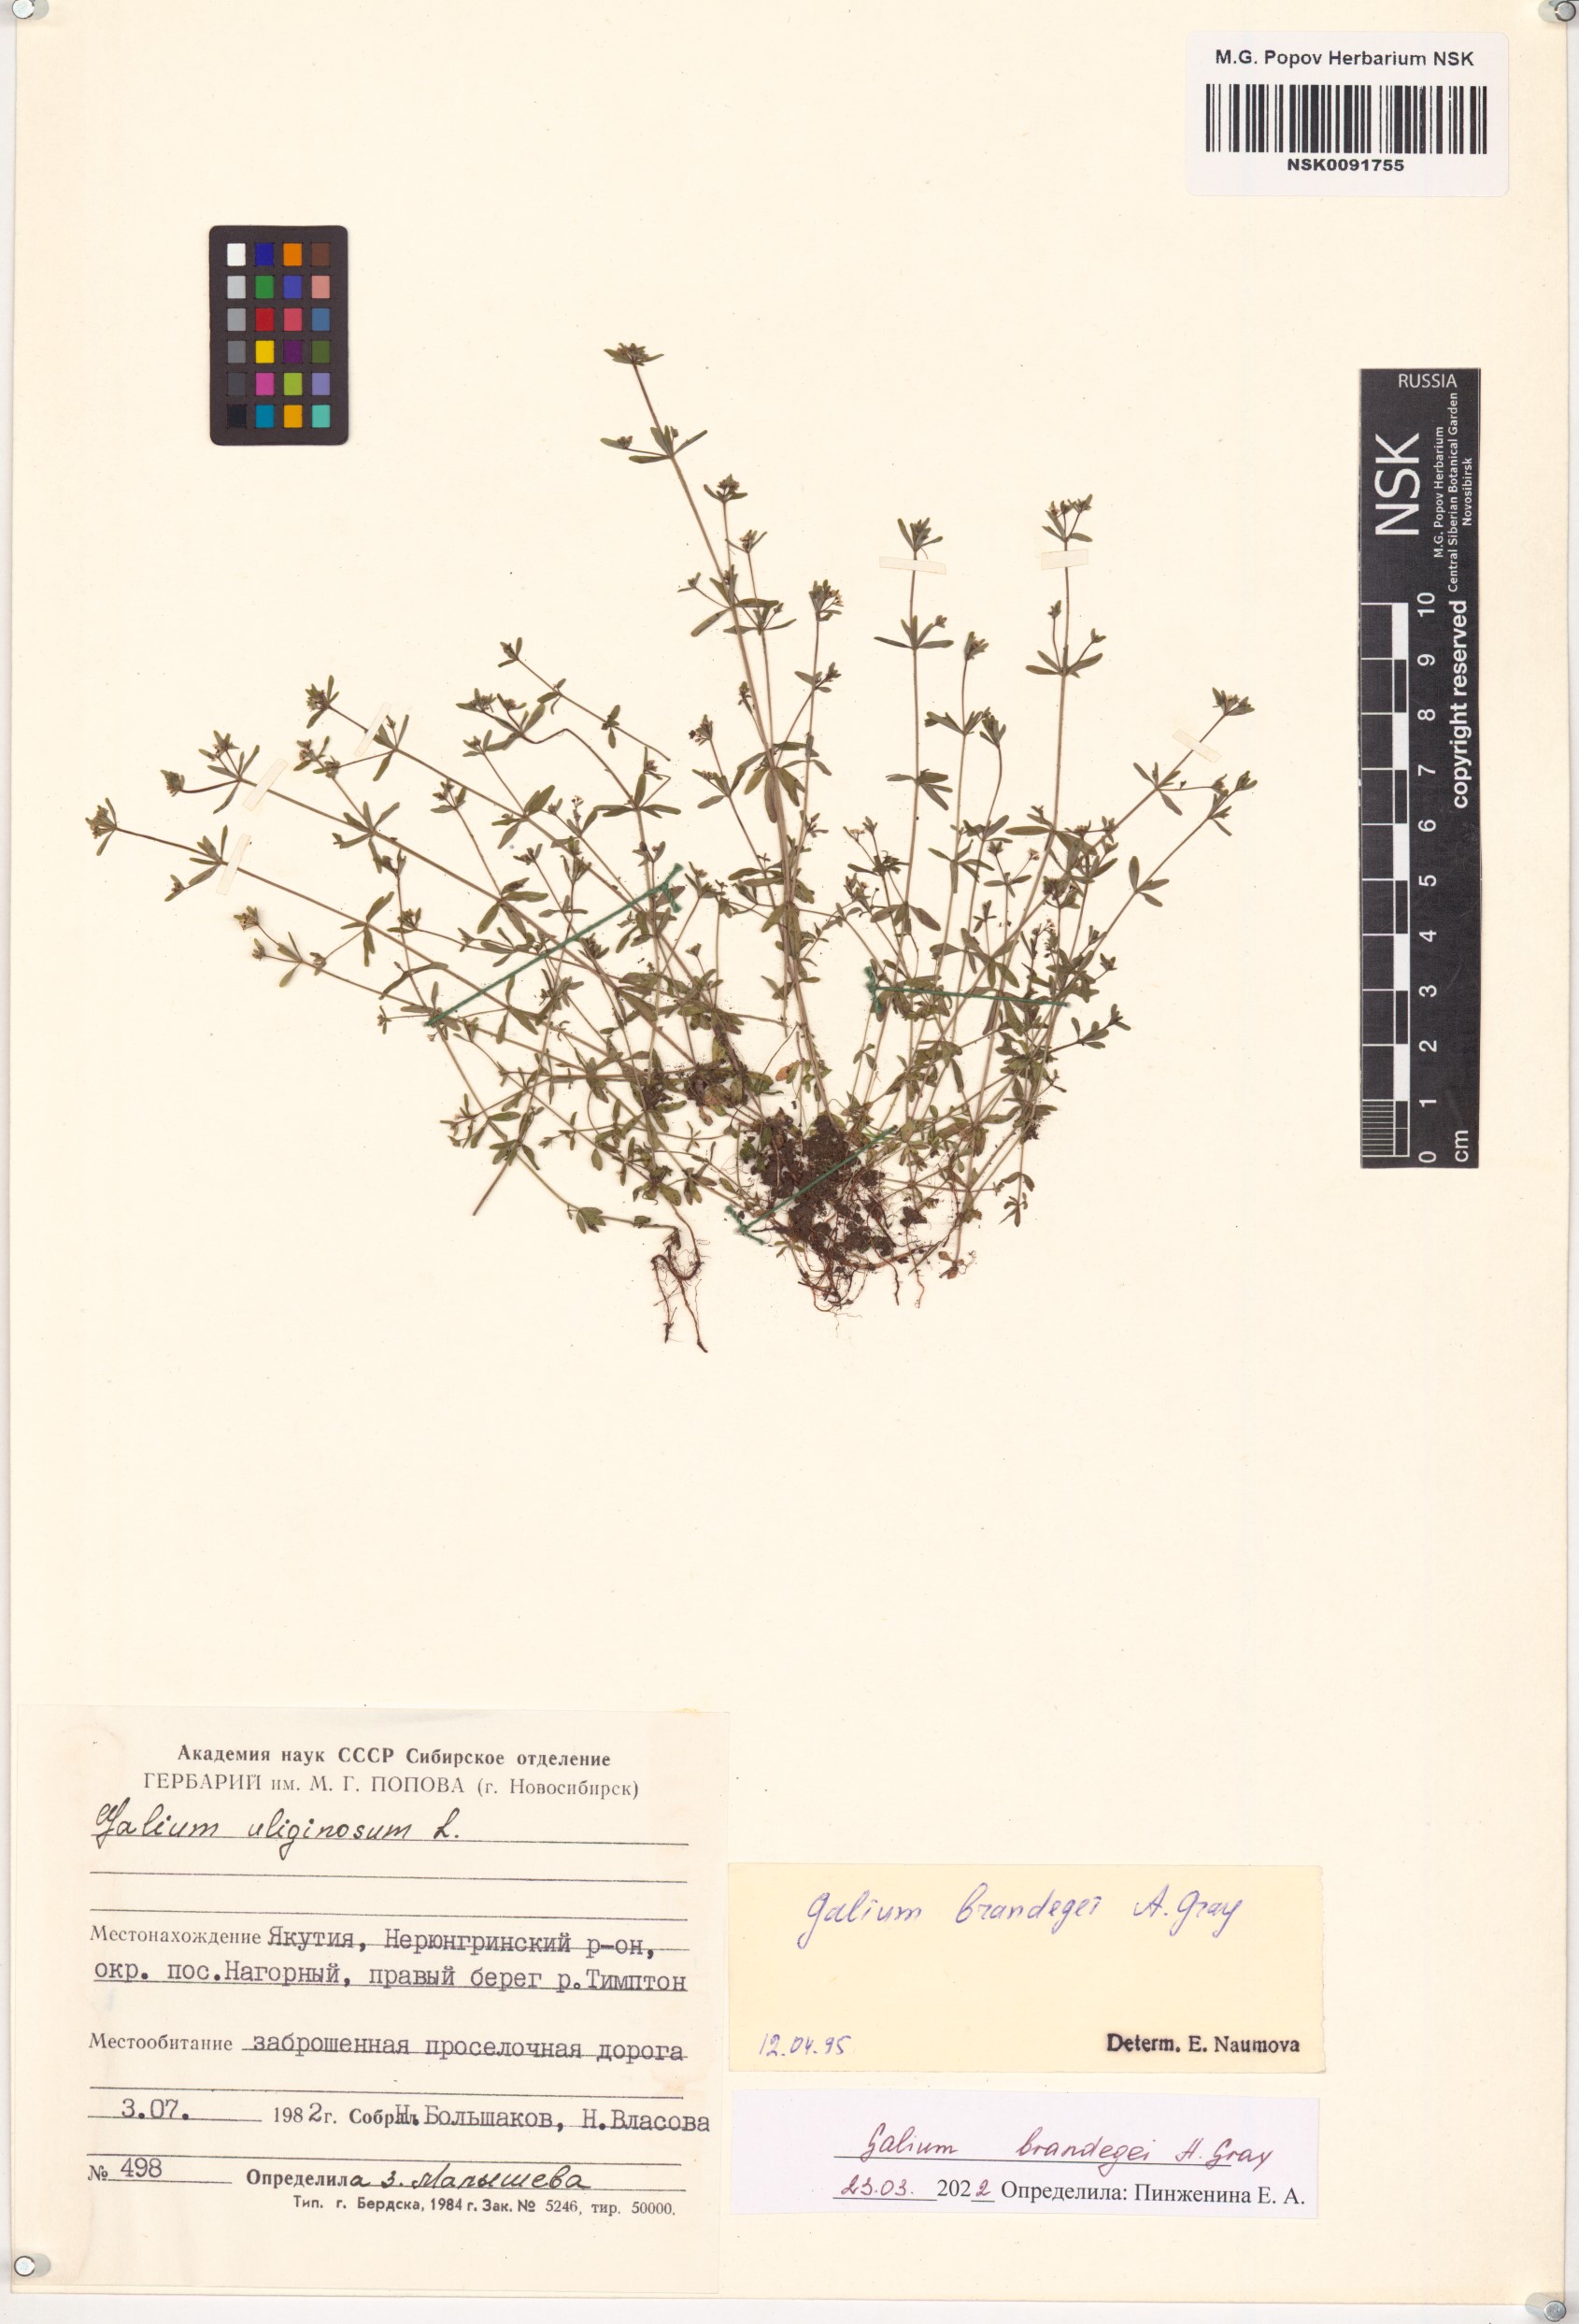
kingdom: Plantae
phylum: Tracheophyta
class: Magnoliopsida
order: Gentianales
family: Rubiaceae
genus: Galium
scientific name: Galium trifidum
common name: Small bedstraw
